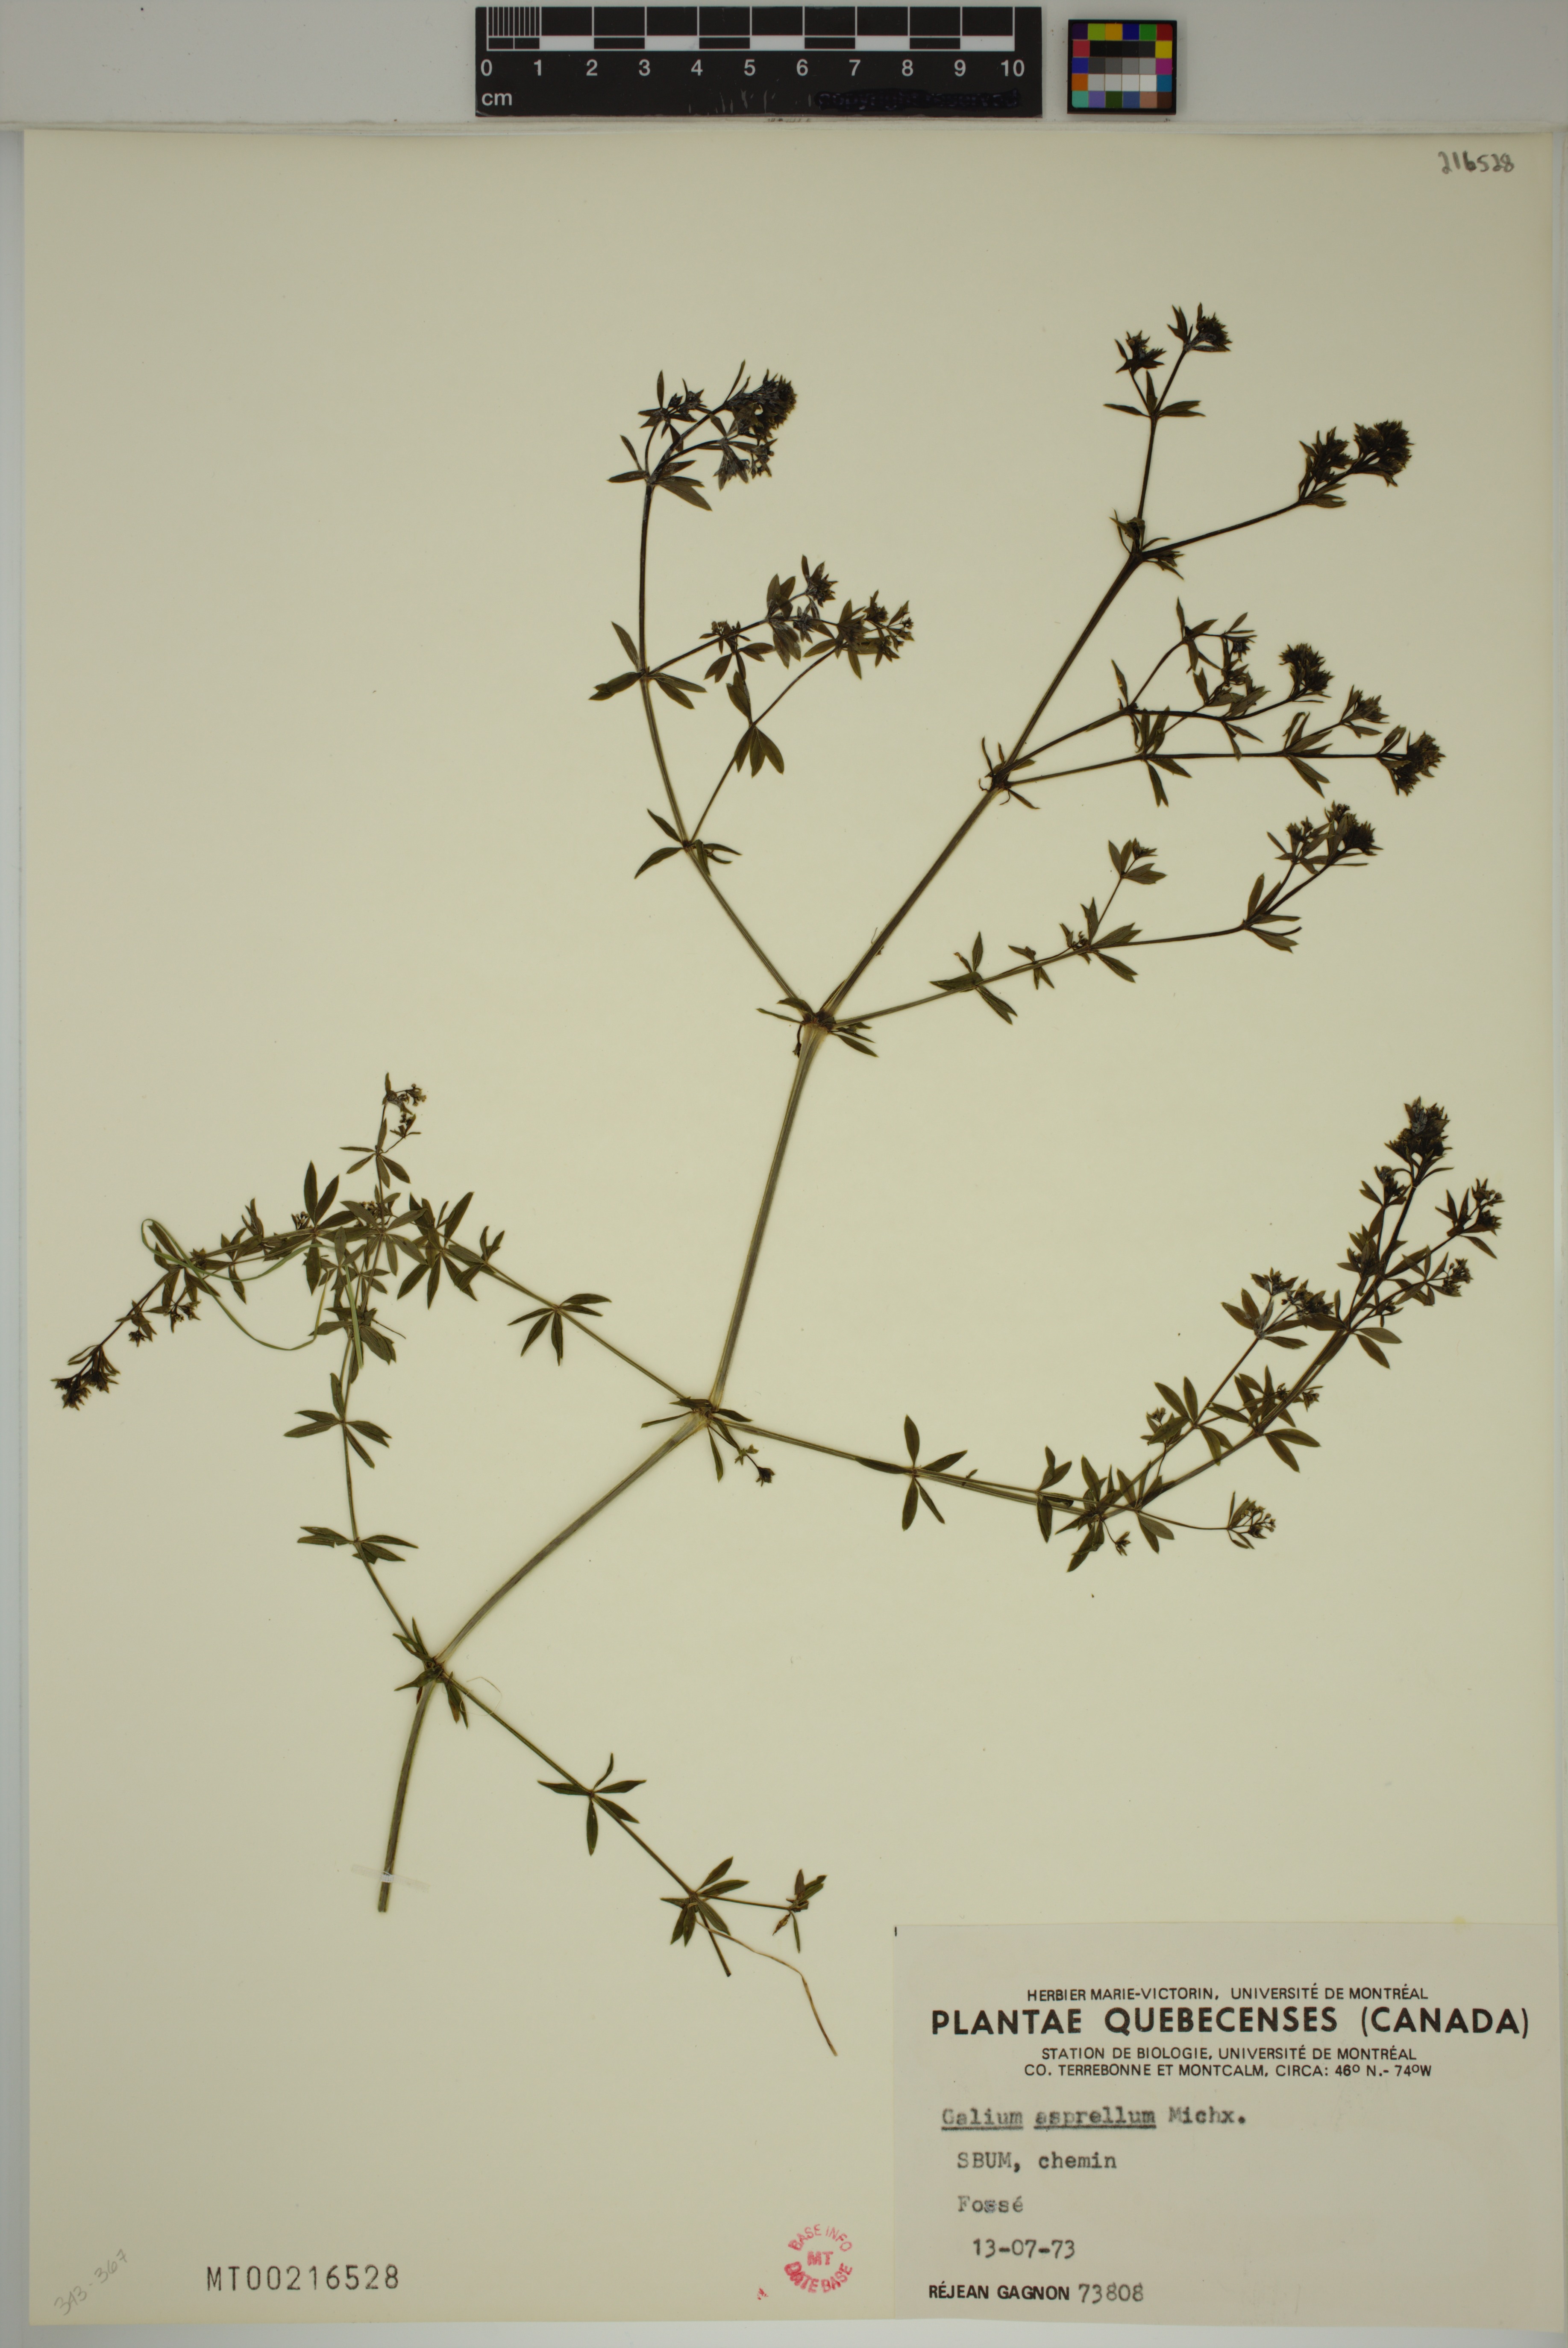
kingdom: Plantae
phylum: Tracheophyta
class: Magnoliopsida
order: Gentianales
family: Rubiaceae
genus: Galium
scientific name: Galium asprellum
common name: Rough bedstraw
